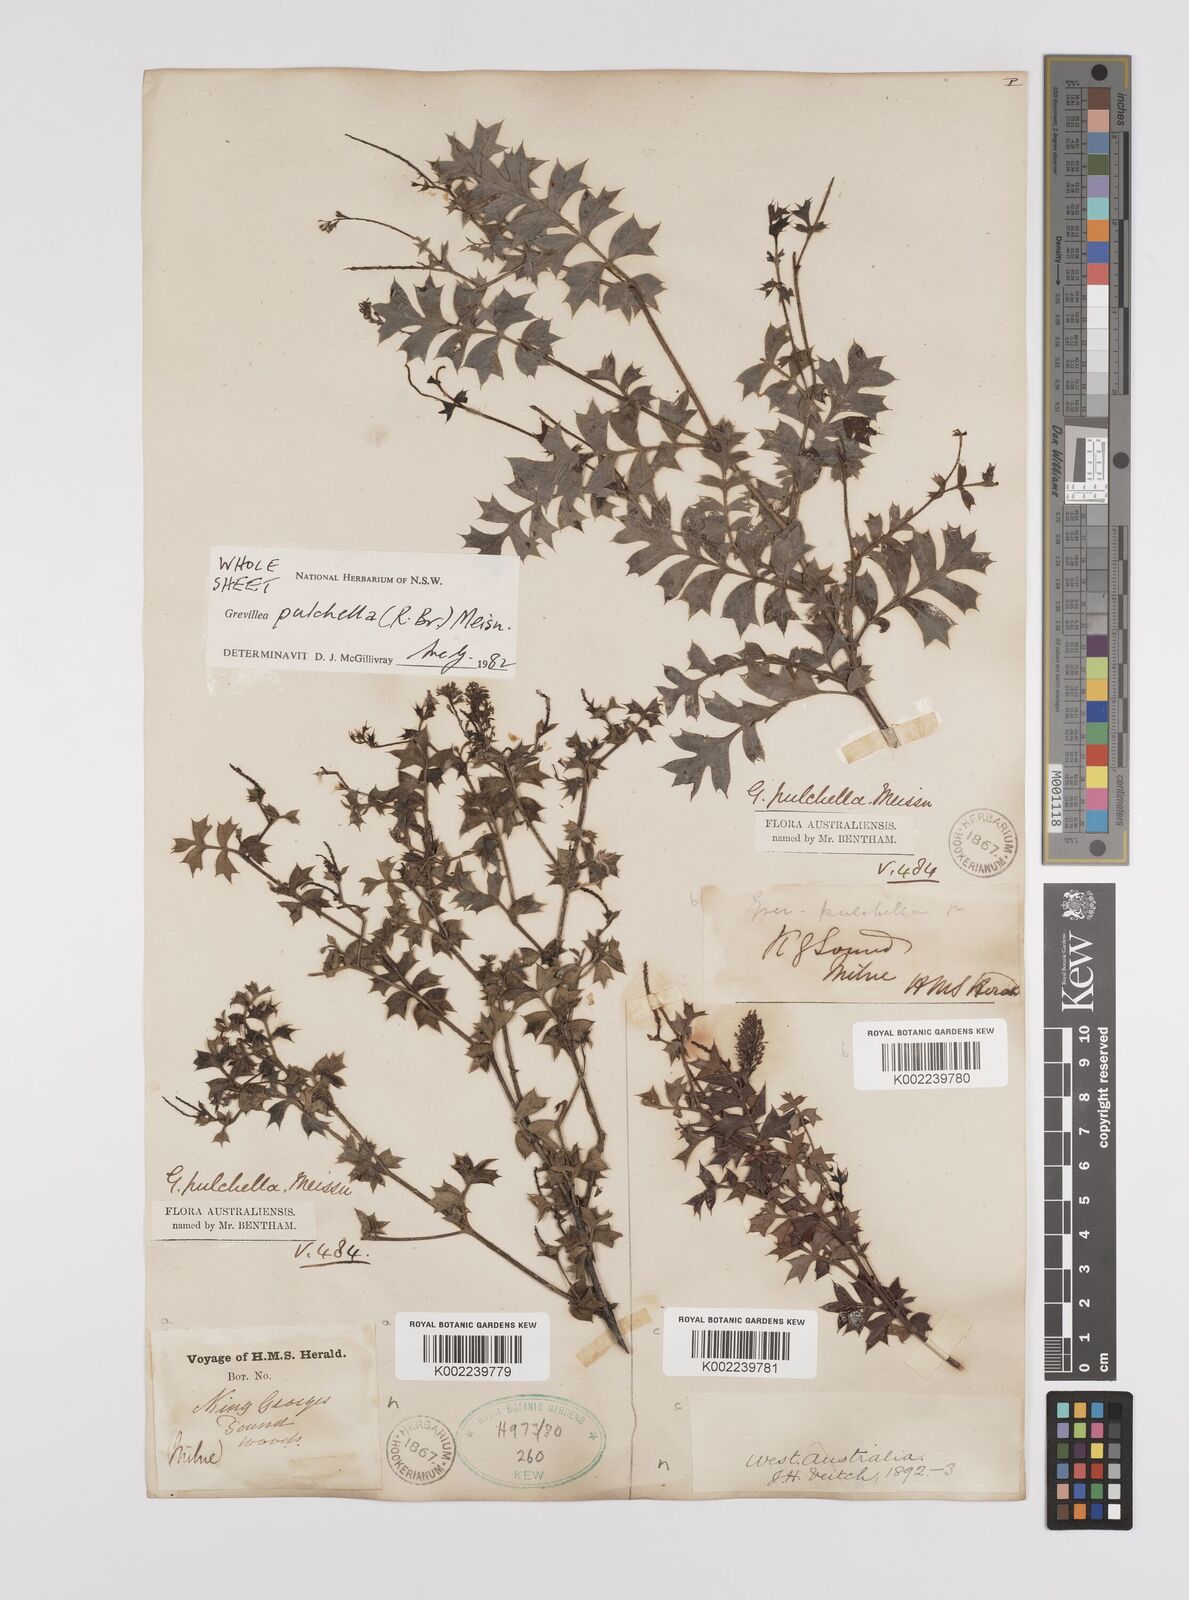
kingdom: Plantae
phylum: Tracheophyta
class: Magnoliopsida
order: Proteales
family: Proteaceae
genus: Grevillea
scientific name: Grevillea pulchella
